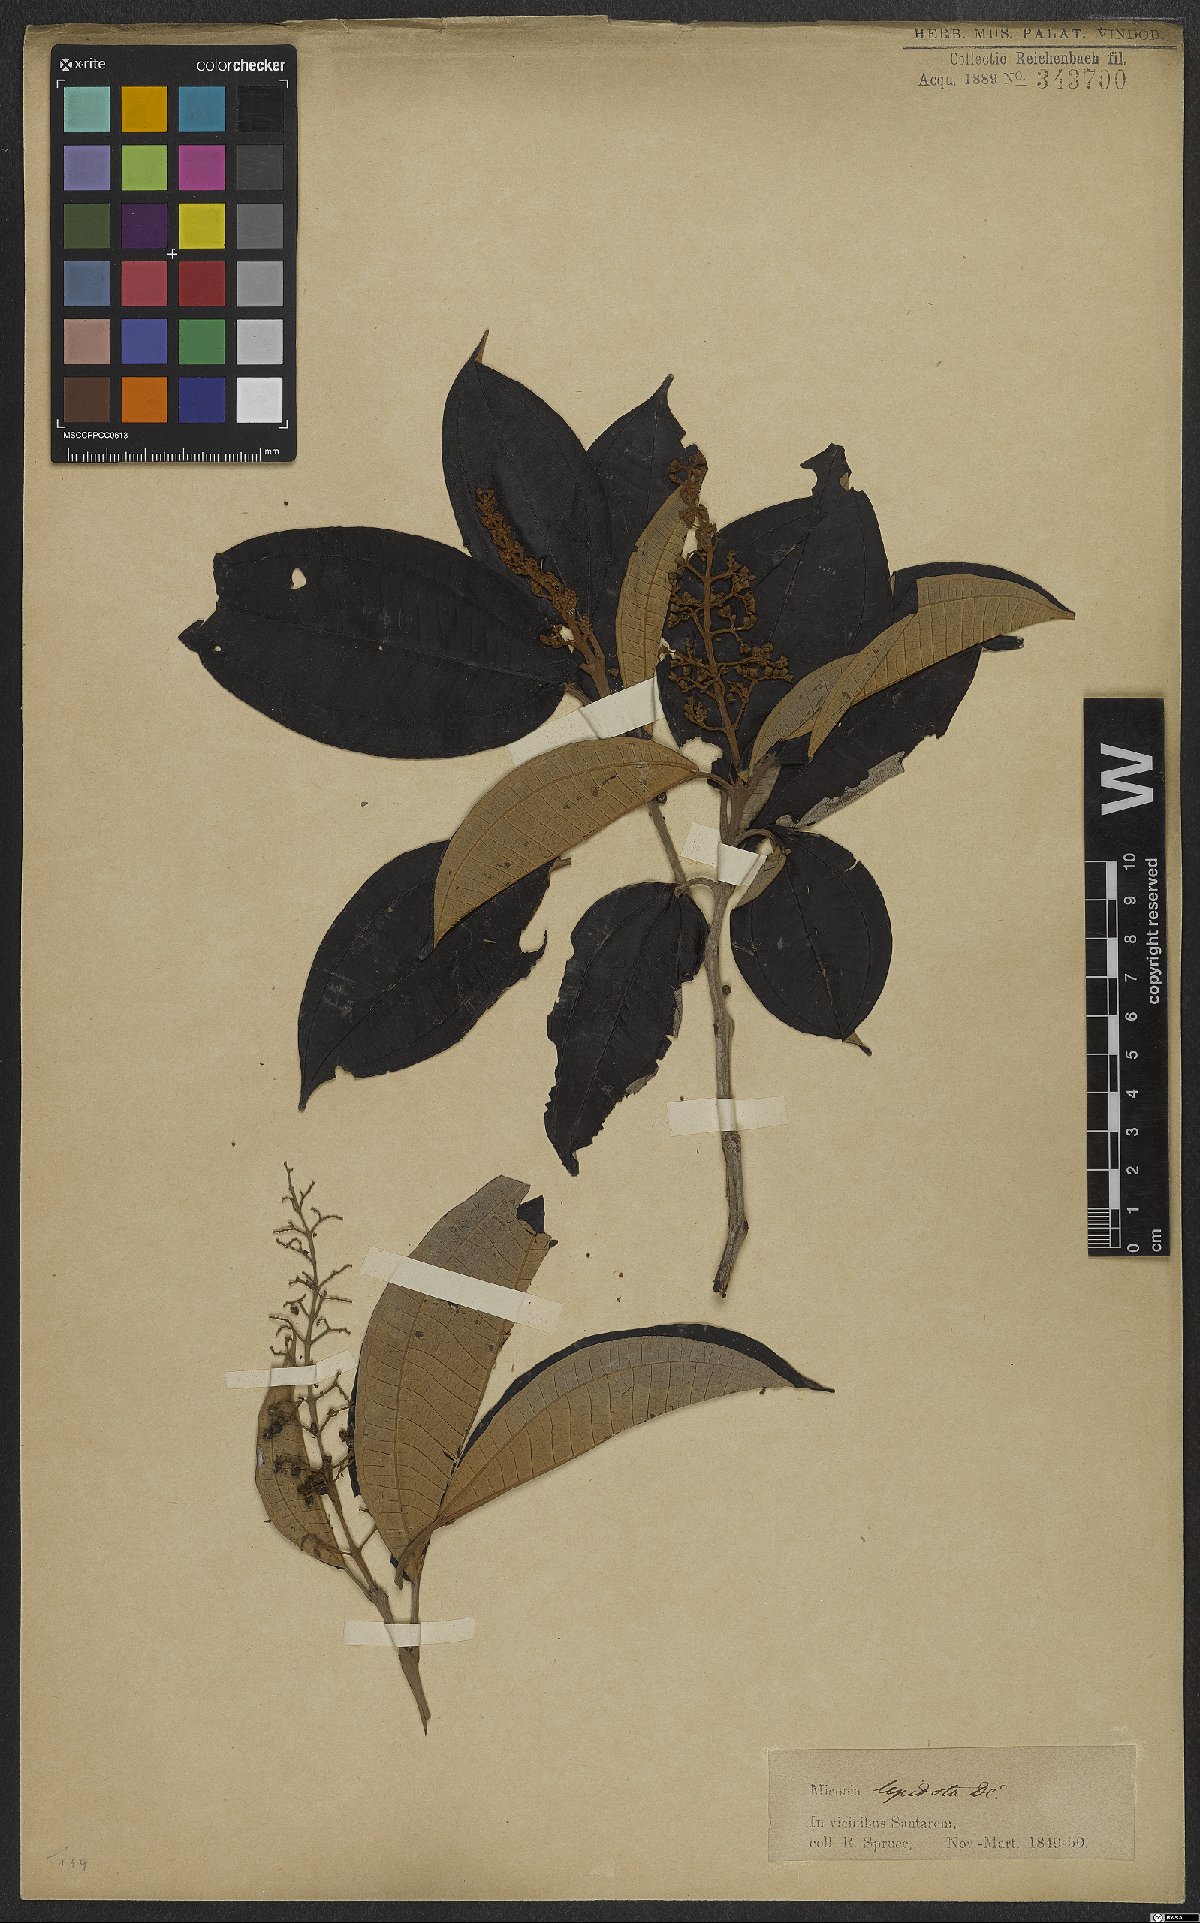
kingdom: Plantae
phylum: Tracheophyta
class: Magnoliopsida
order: Myrtales
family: Melastomataceae
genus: Miconia
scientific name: Miconia lepidota
